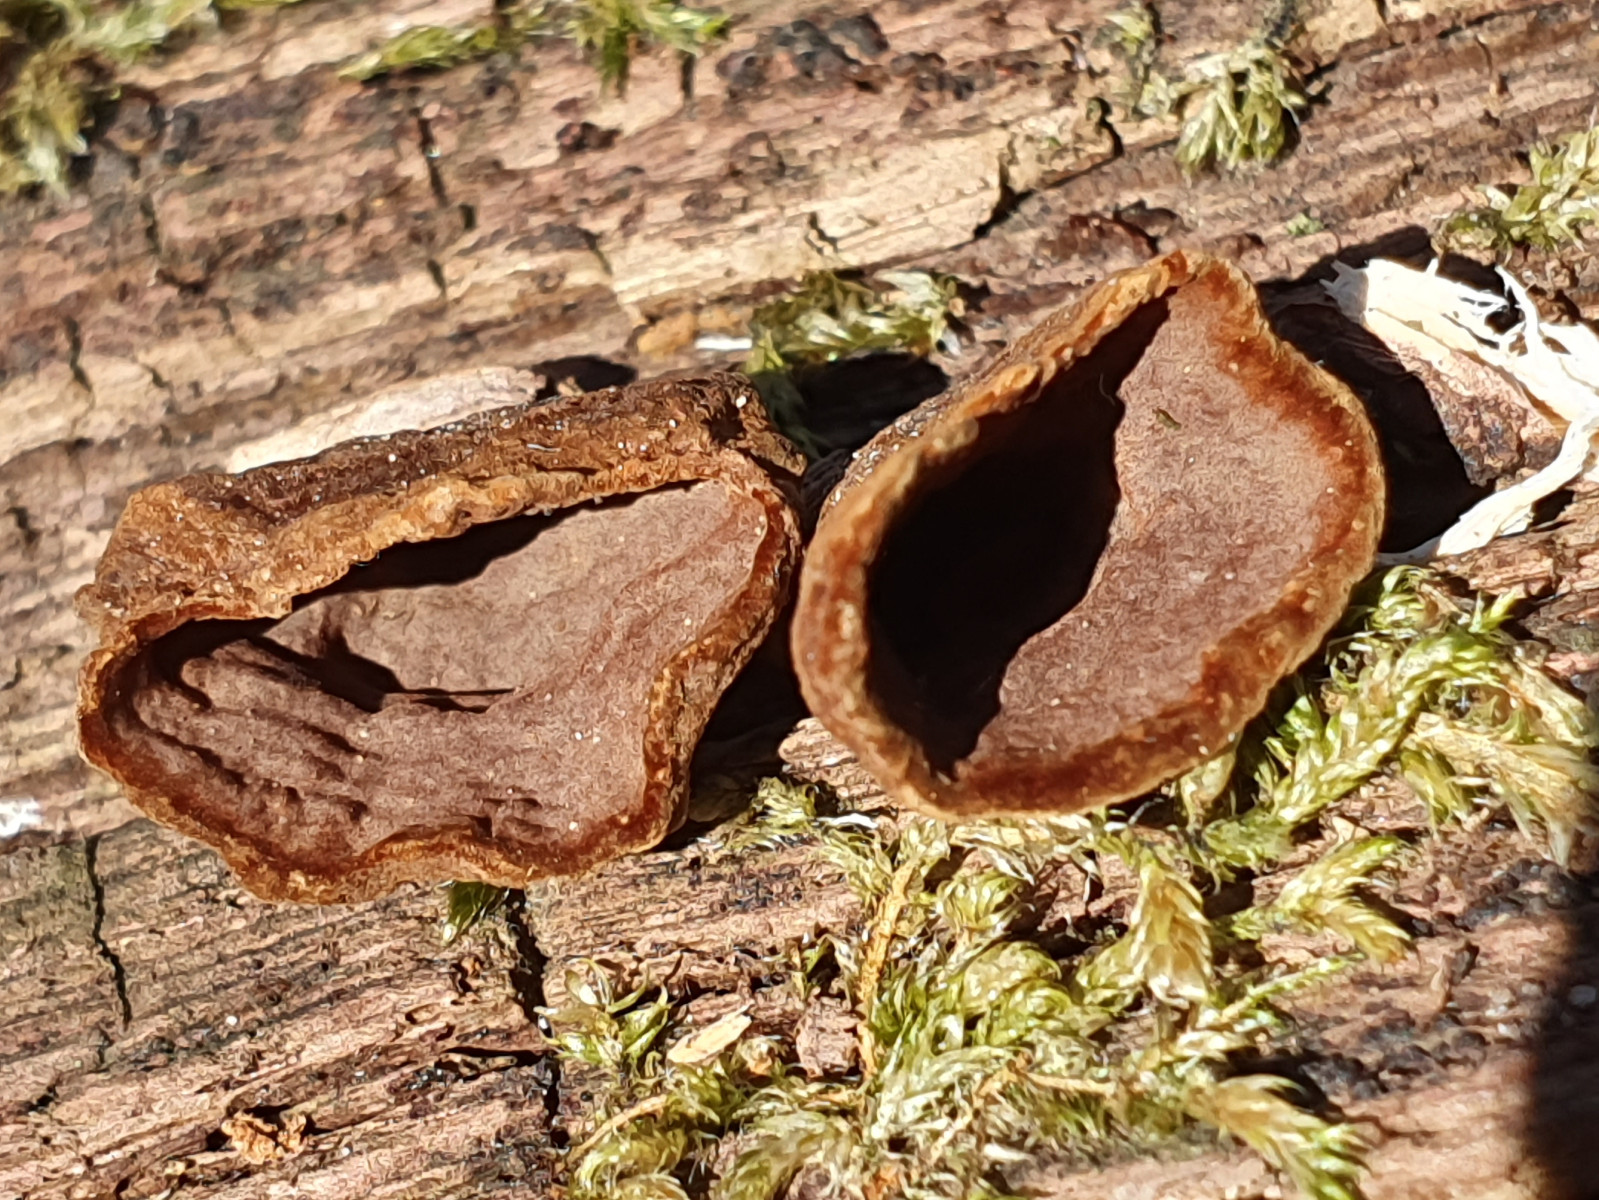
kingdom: Fungi
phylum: Basidiomycota
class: Agaricomycetes
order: Hymenochaetales
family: Hymenochaetaceae
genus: Hymenochaete
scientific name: Hymenochaete rubiginosa
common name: stiv ruslædersvamp
